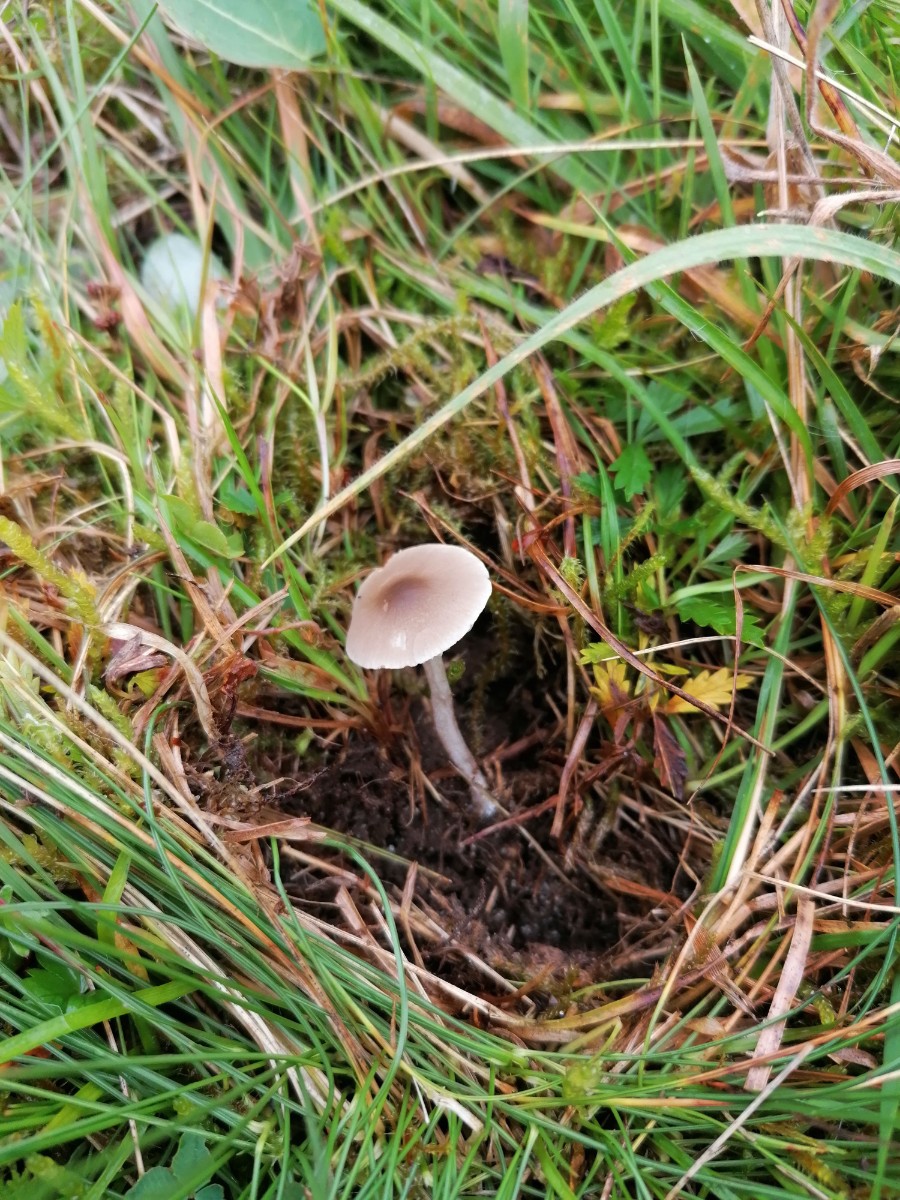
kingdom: Fungi
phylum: Basidiomycota
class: Agaricomycetes
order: Agaricales
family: Tricholomataceae
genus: Dermoloma
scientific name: Dermoloma cuneifolium
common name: eng-nonnehat
